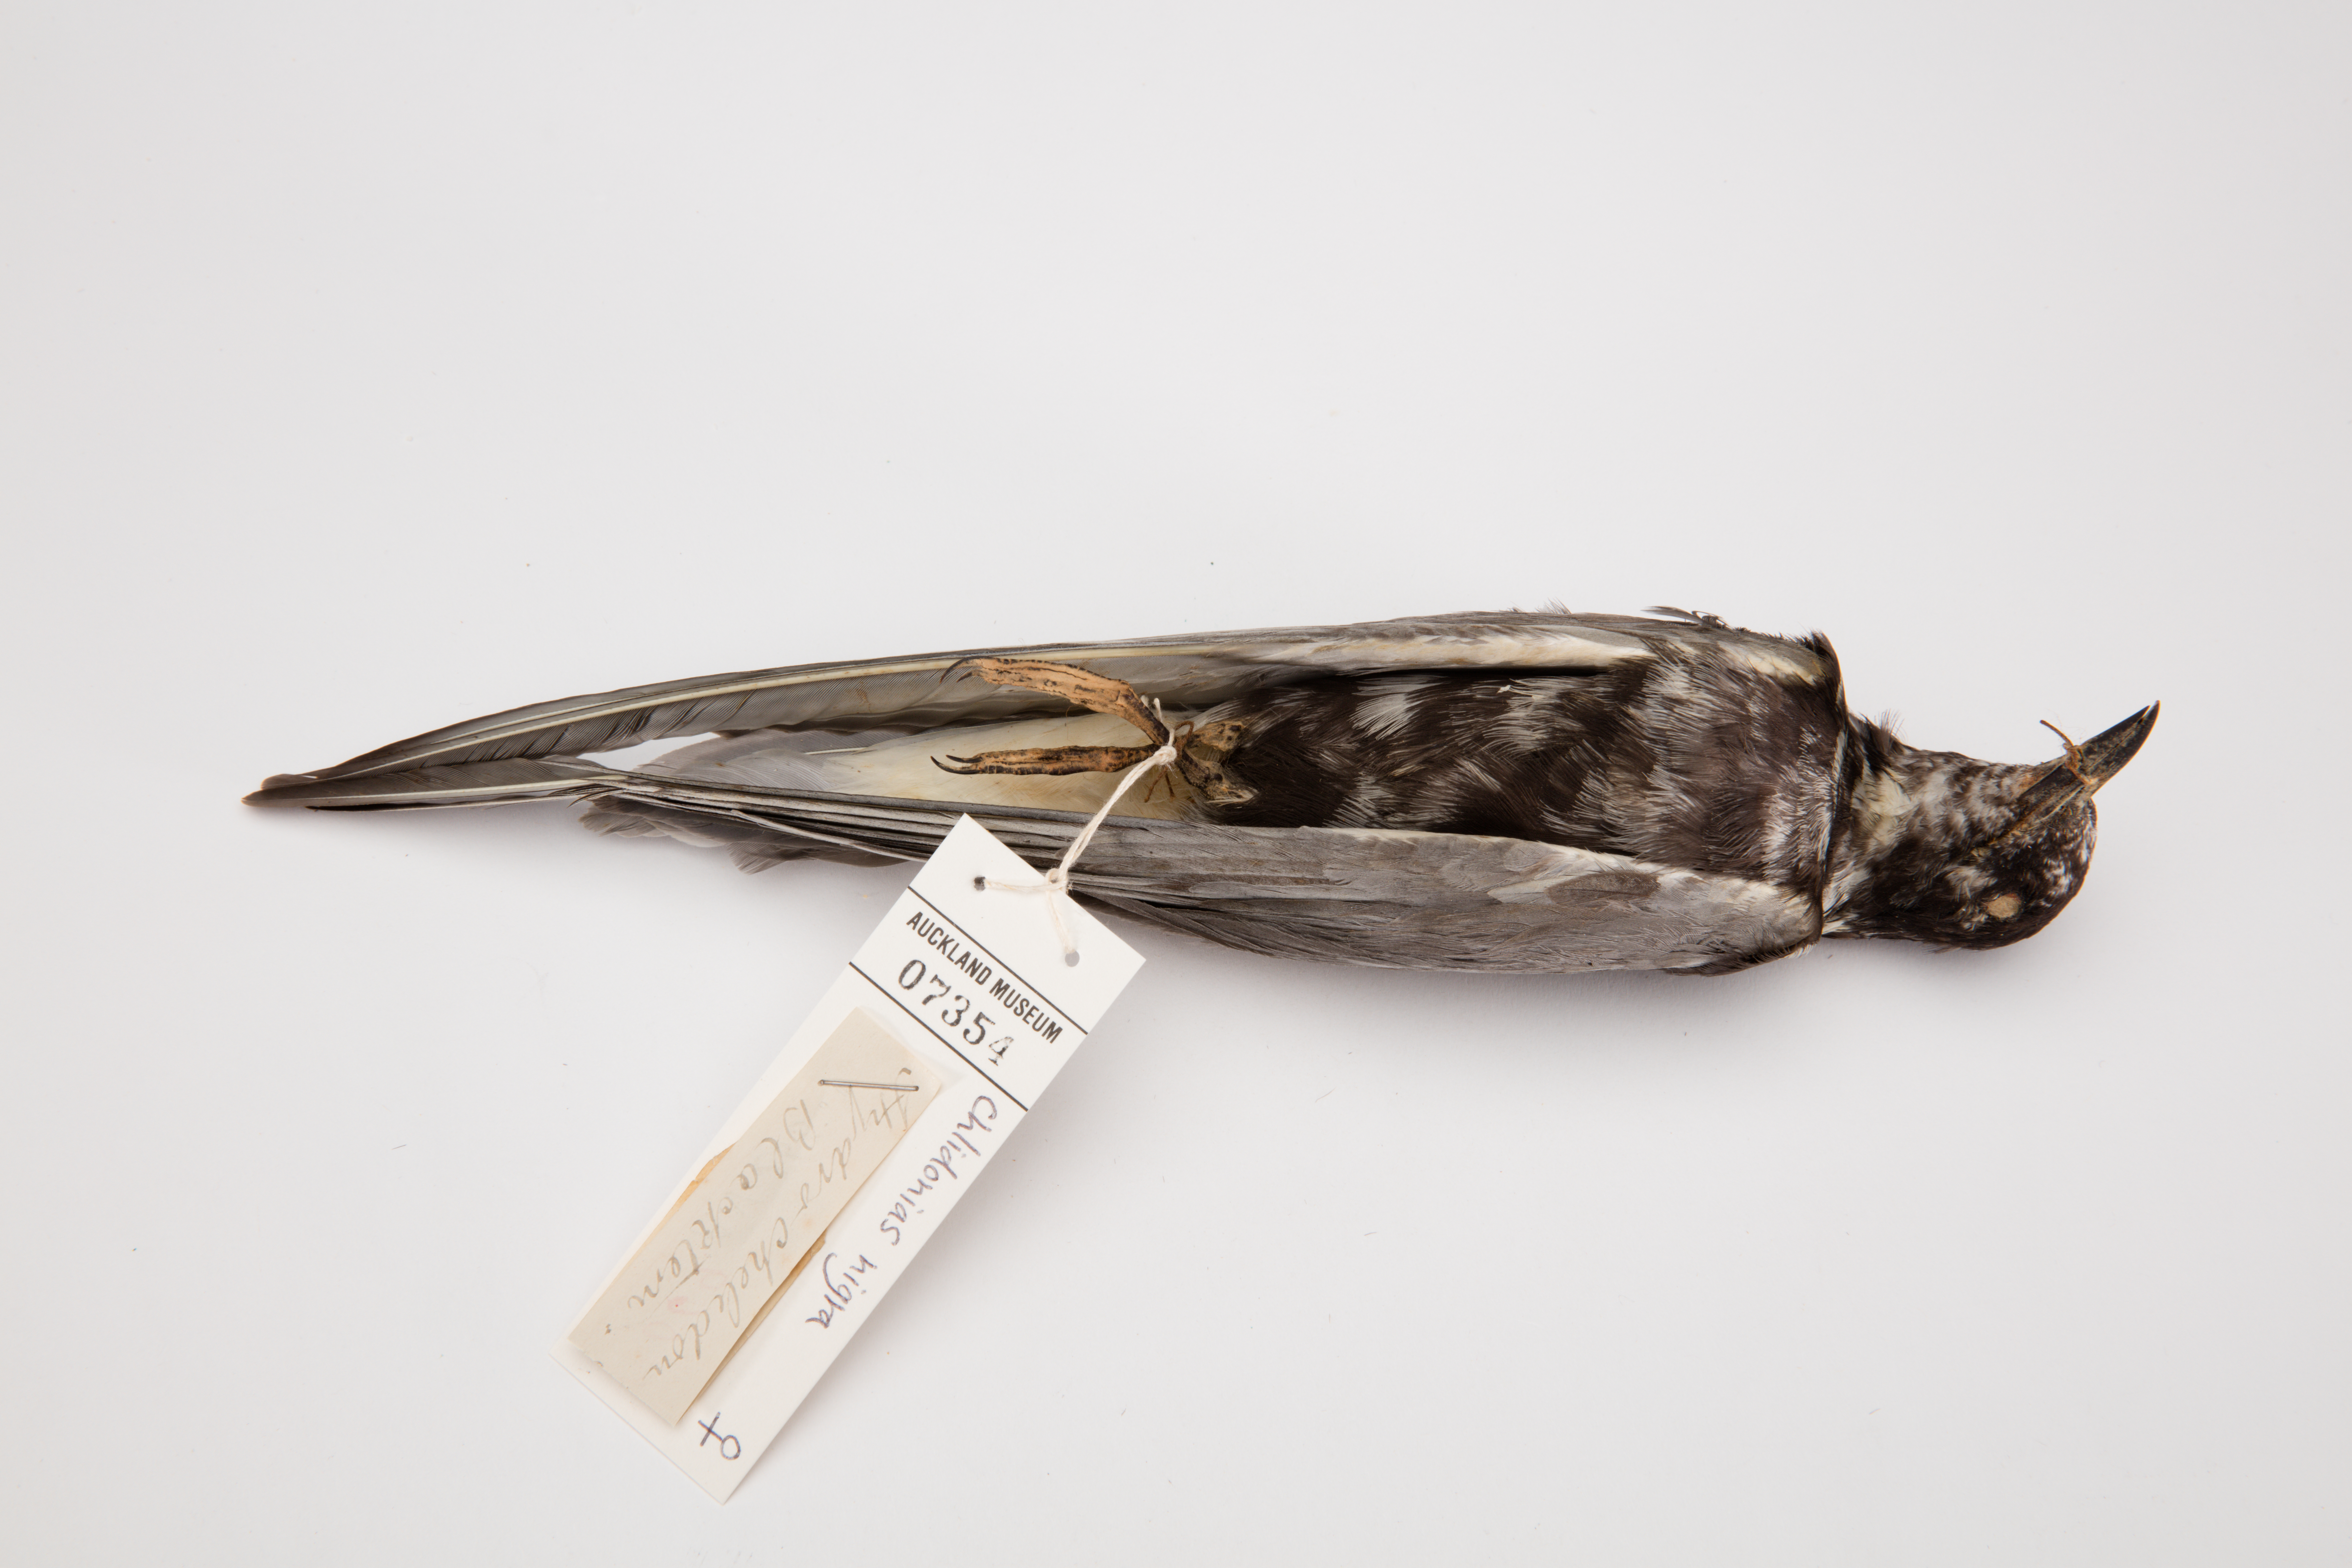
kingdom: Animalia
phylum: Chordata
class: Aves
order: Charadriiformes
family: Laridae
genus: Chlidonias
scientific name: Chlidonias niger
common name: Black tern
